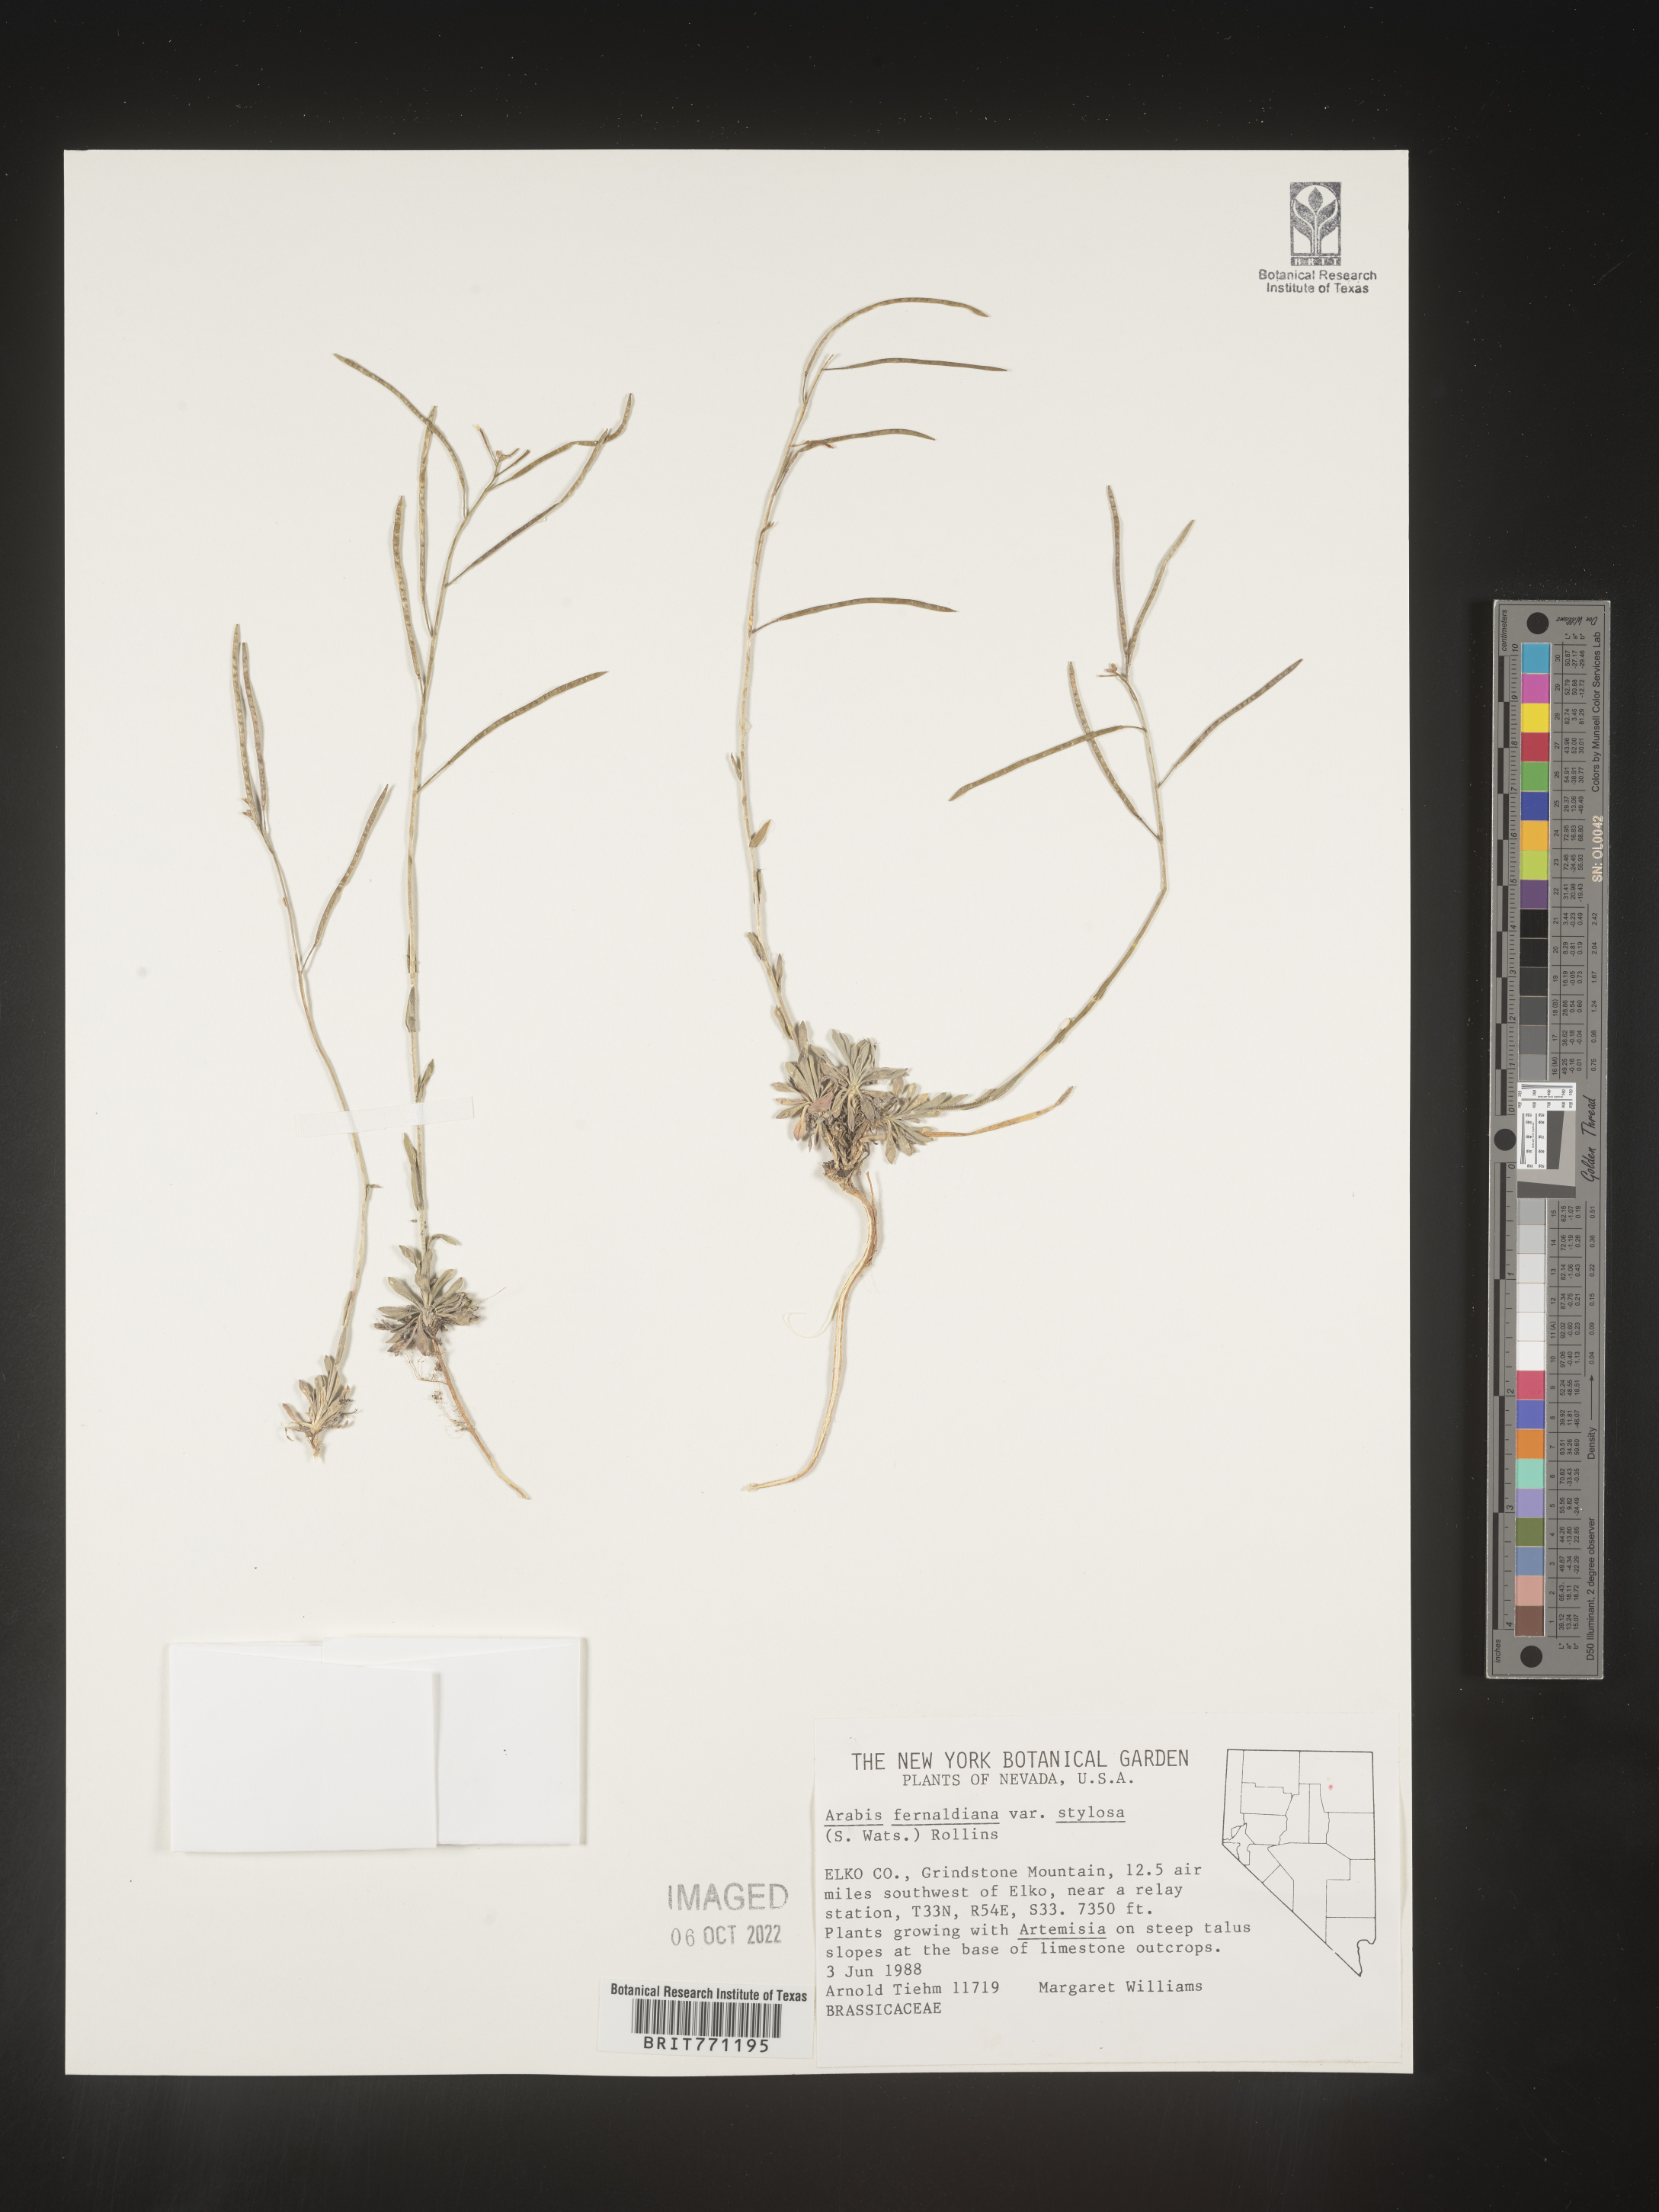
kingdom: Plantae
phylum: Tracheophyta
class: Magnoliopsida
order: Brassicales
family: Brassicaceae
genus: Arabis
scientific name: Arabis
